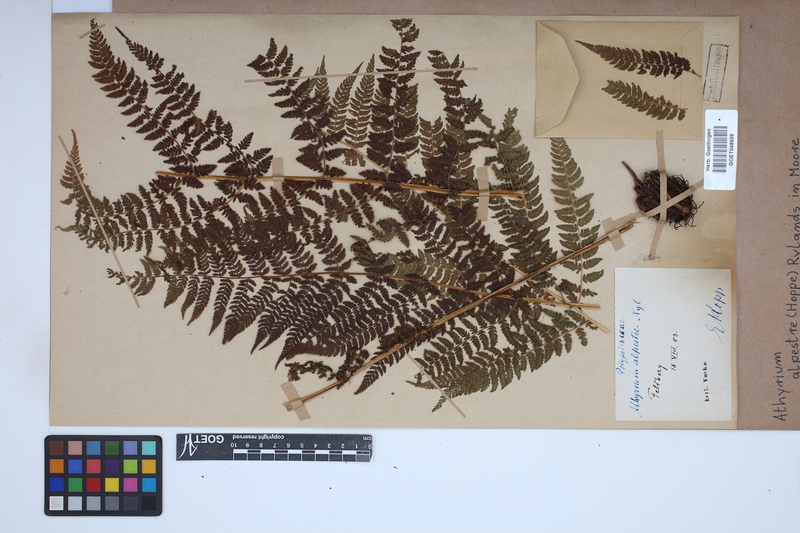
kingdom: Plantae
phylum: Tracheophyta
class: Polypodiopsida
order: Polypodiales
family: Athyriaceae
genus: Pseudathyrium
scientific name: Pseudathyrium alpestre
